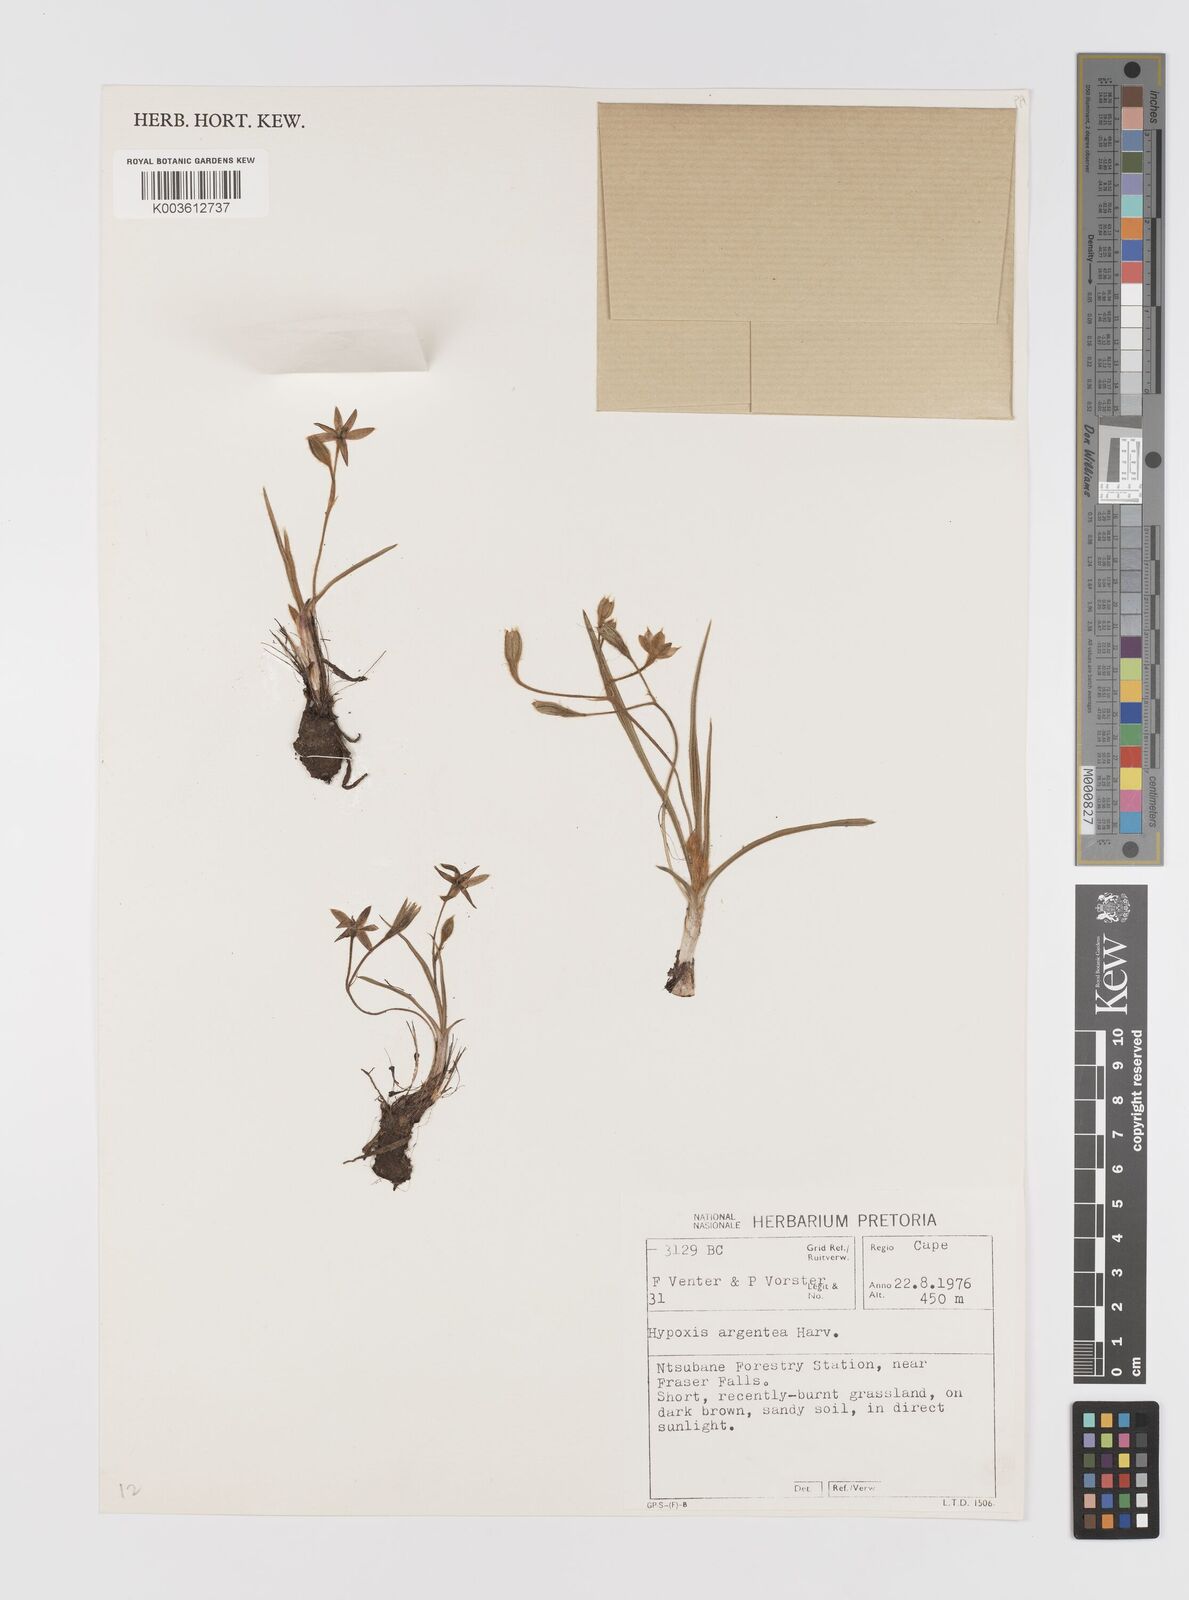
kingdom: Plantae
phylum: Tracheophyta
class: Liliopsida
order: Asparagales
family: Hypoxidaceae
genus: Hypoxis
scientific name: Hypoxis gerrardii
